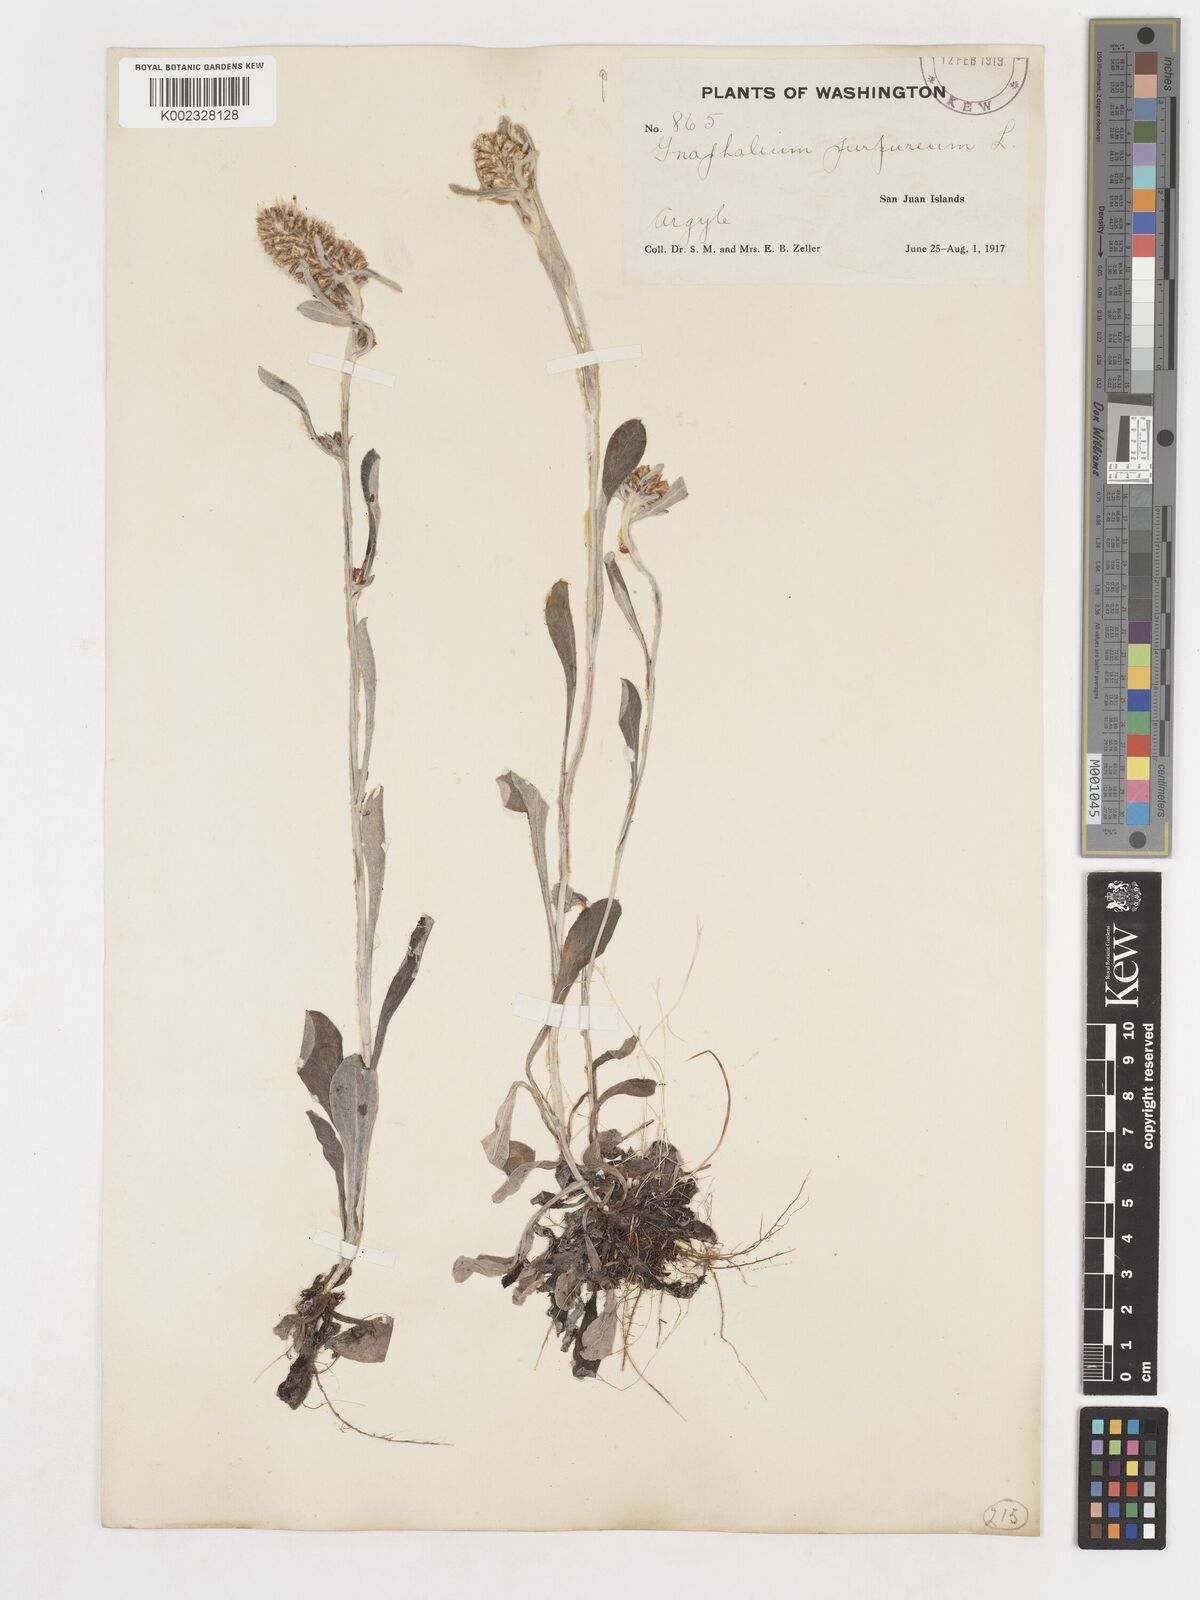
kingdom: Plantae
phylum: Tracheophyta
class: Magnoliopsida
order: Asterales
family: Asteraceae
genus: Gamochaeta
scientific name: Gamochaeta purpurea
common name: Purple cudweed
